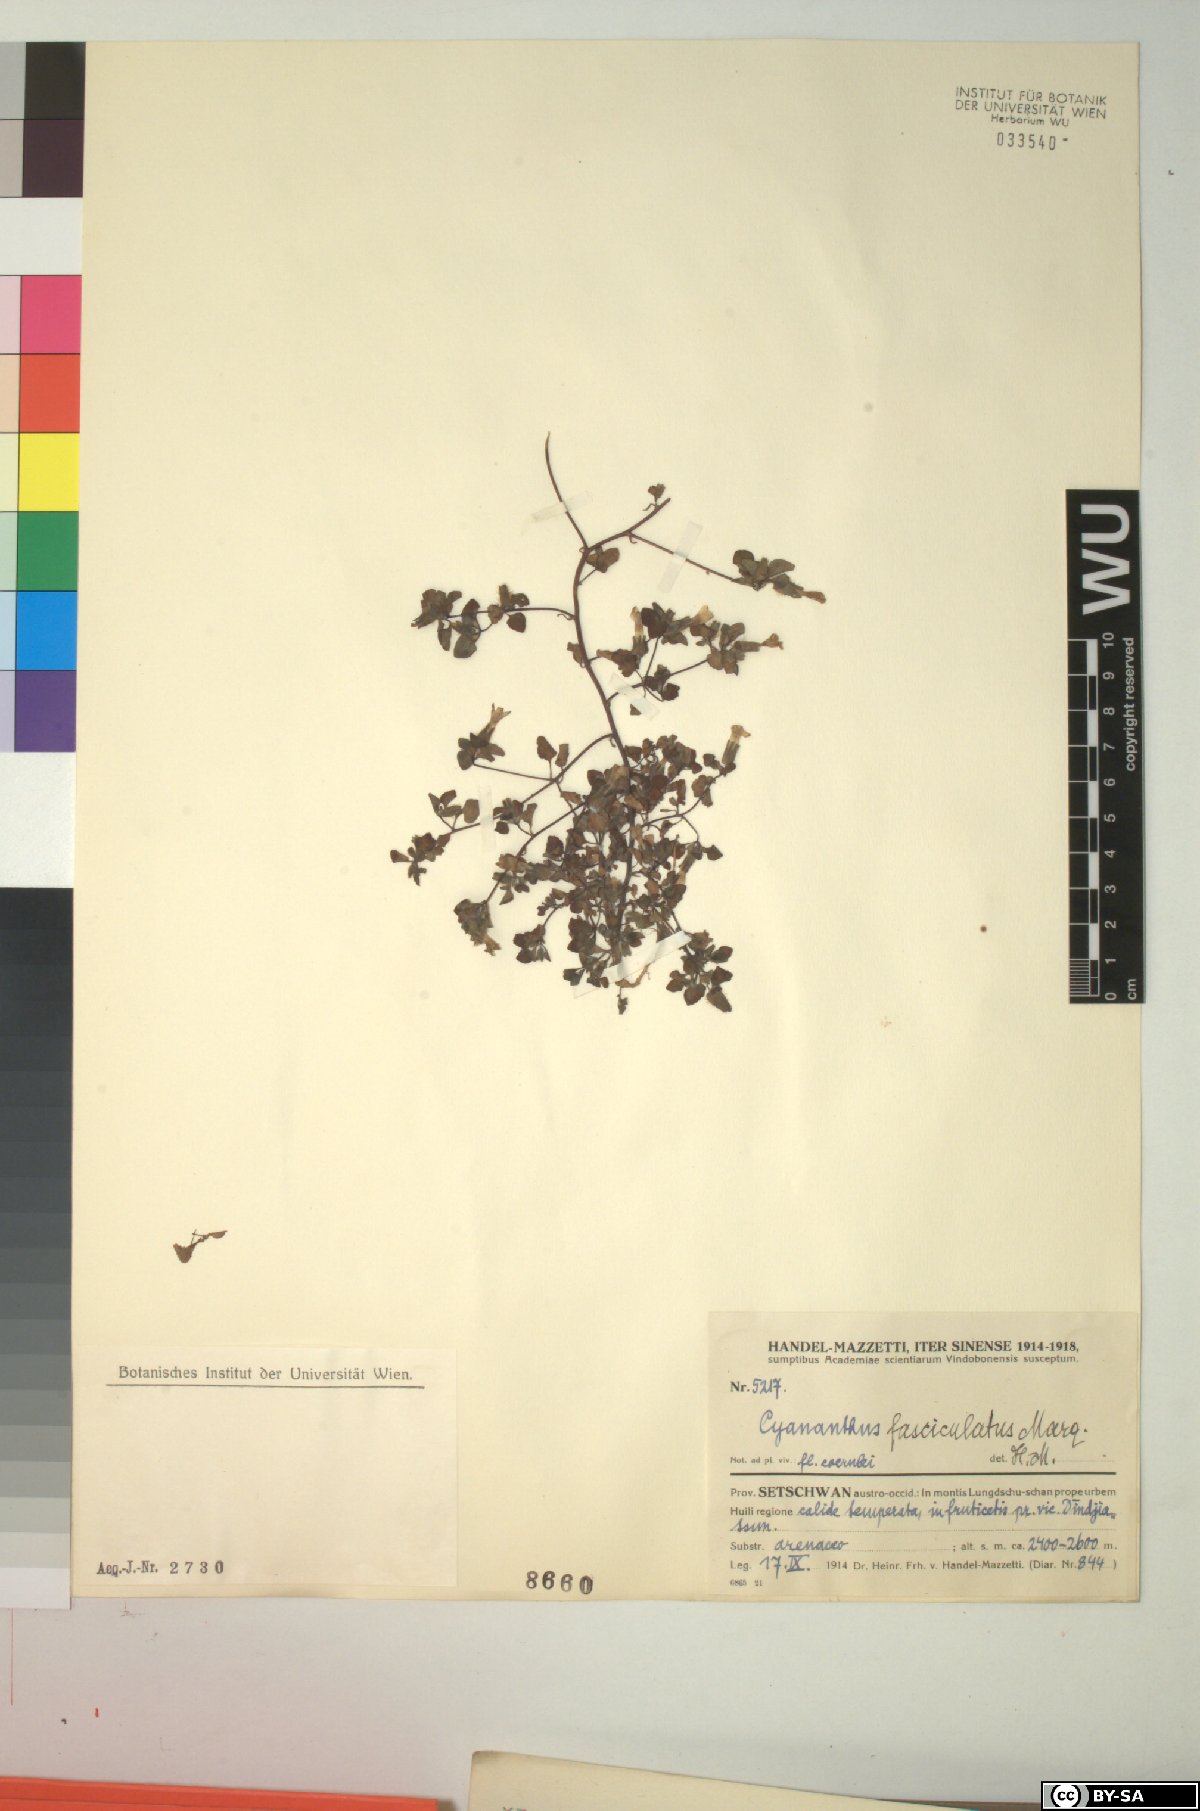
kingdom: Plantae
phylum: Tracheophyta
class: Magnoliopsida
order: Asterales
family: Campanulaceae
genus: Cyananthus
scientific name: Cyananthus fasciculatus
